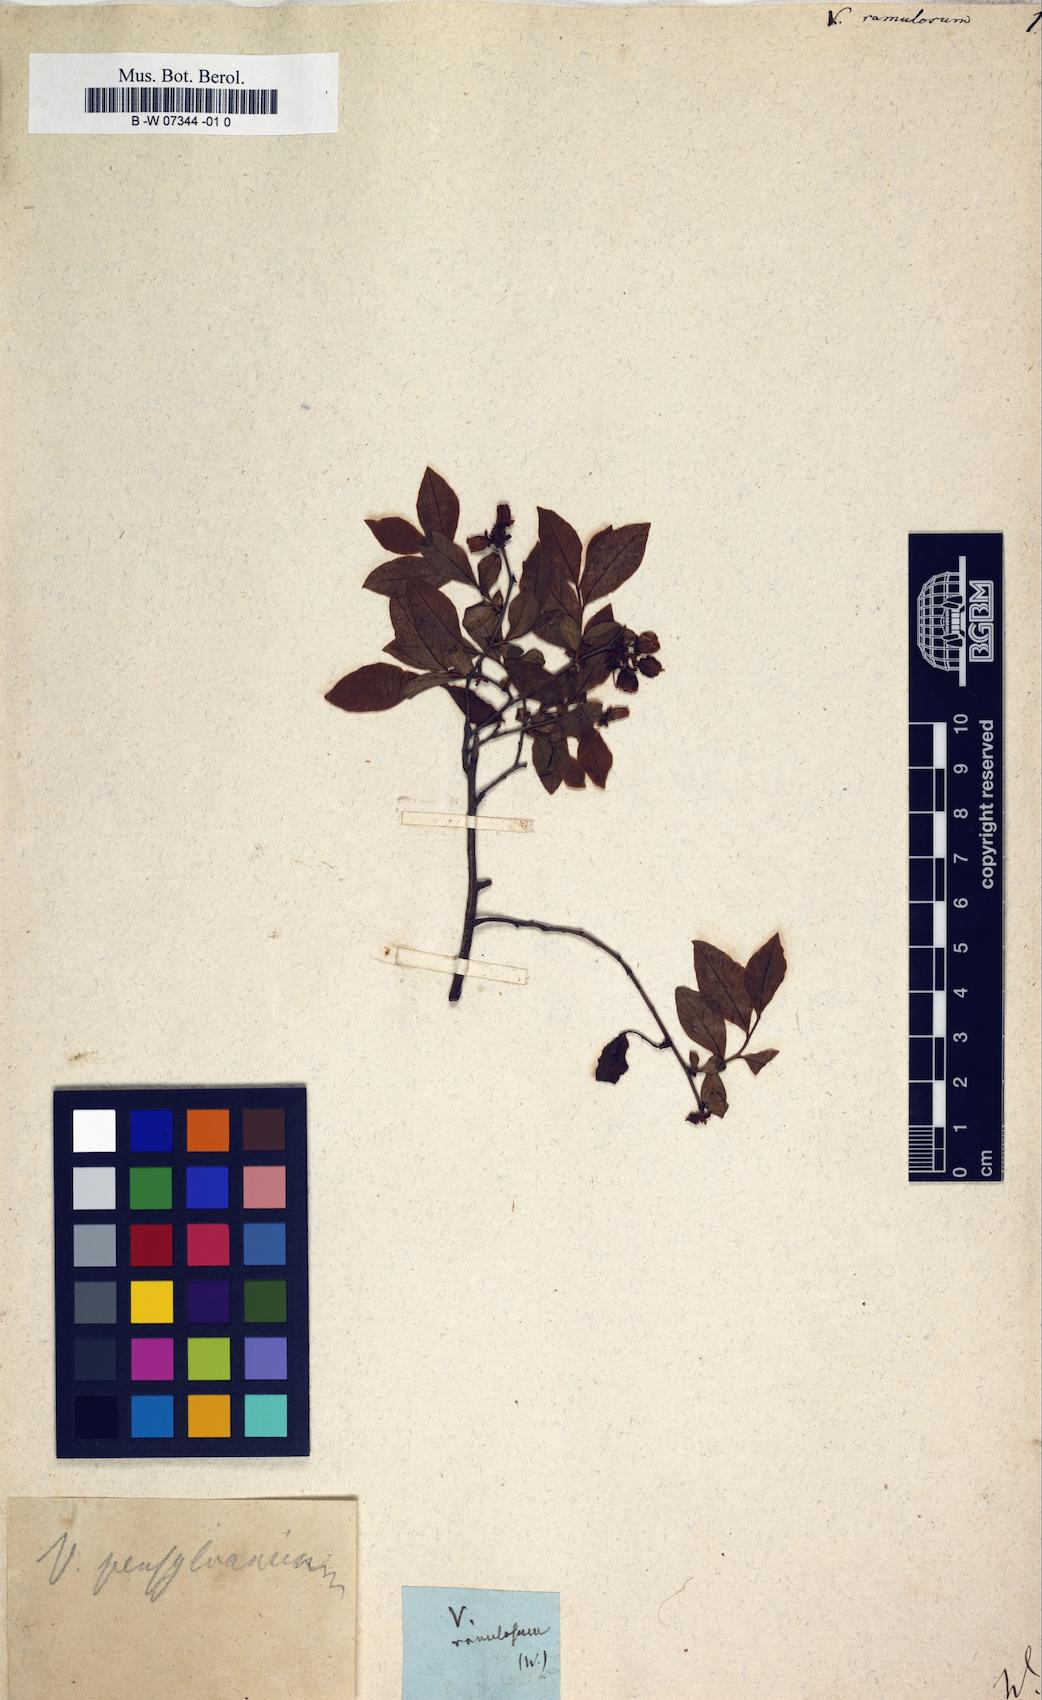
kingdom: Plantae
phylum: Tracheophyta
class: Magnoliopsida
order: Ericales
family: Ericaceae
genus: Vaccinium
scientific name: Vaccinium angustifolium
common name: Early lowbush blueberry
